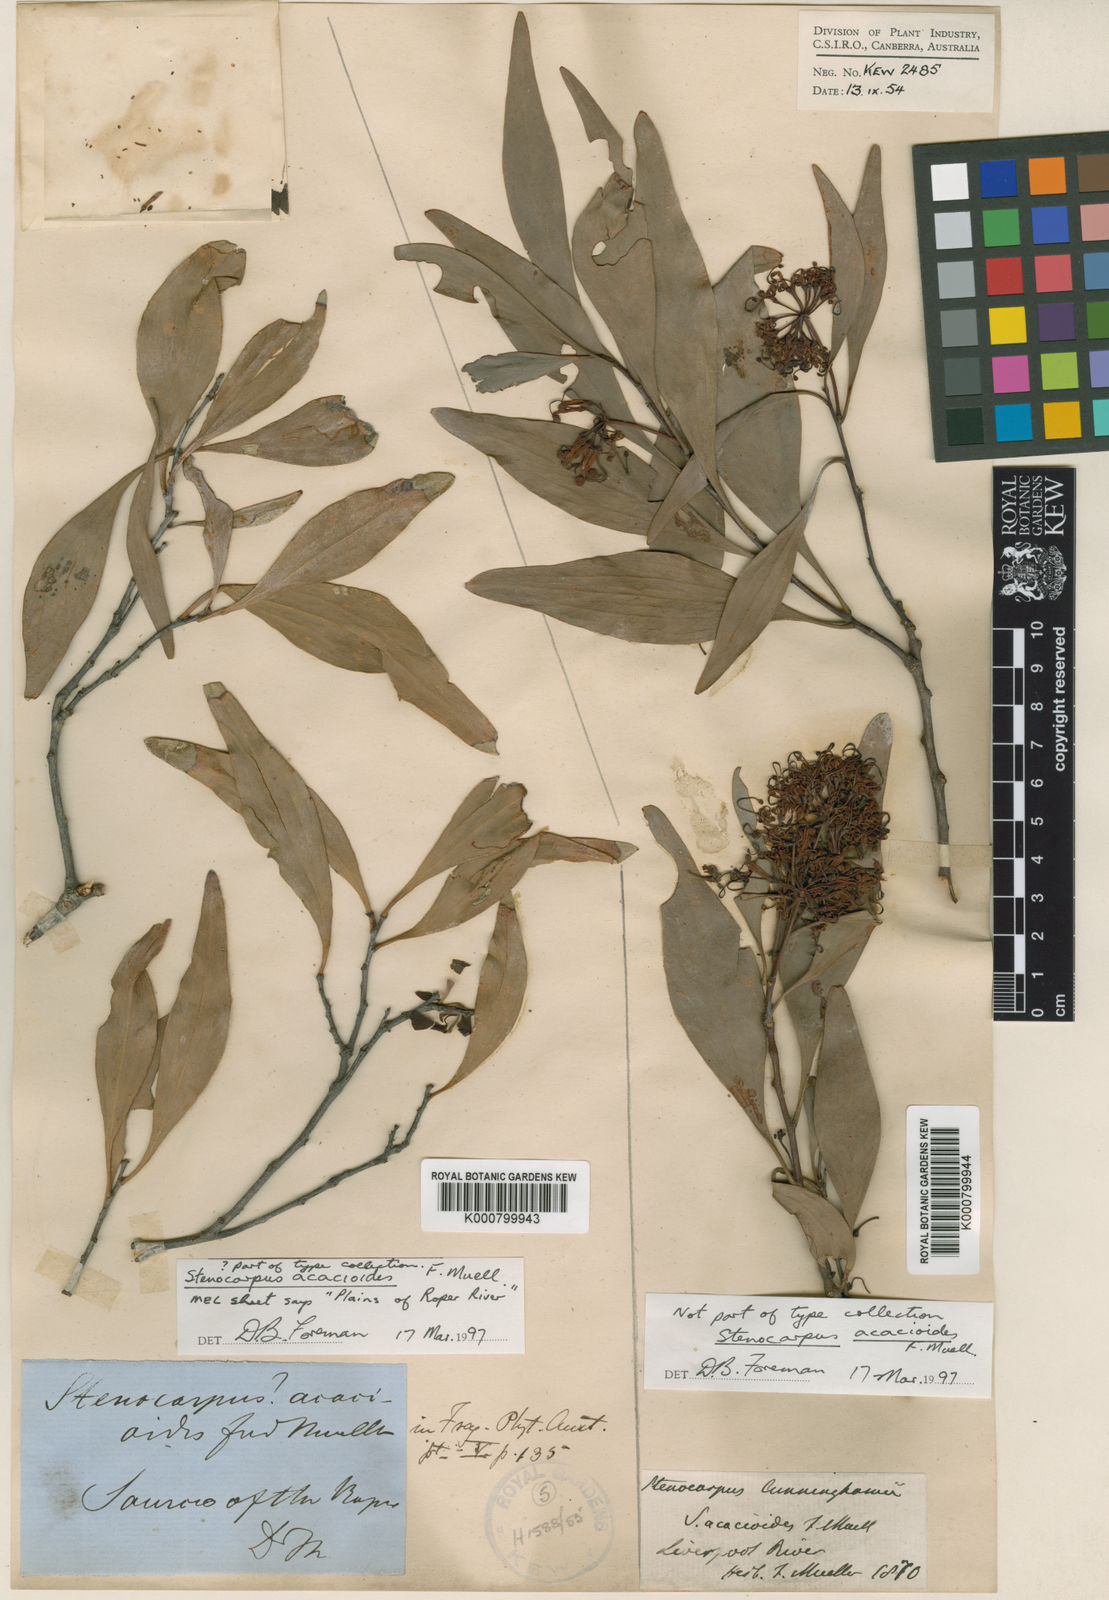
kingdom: Plantae
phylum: Tracheophyta
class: Magnoliopsida
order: Proteales
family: Proteaceae
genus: Stenocarpus
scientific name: Stenocarpus acacioides
